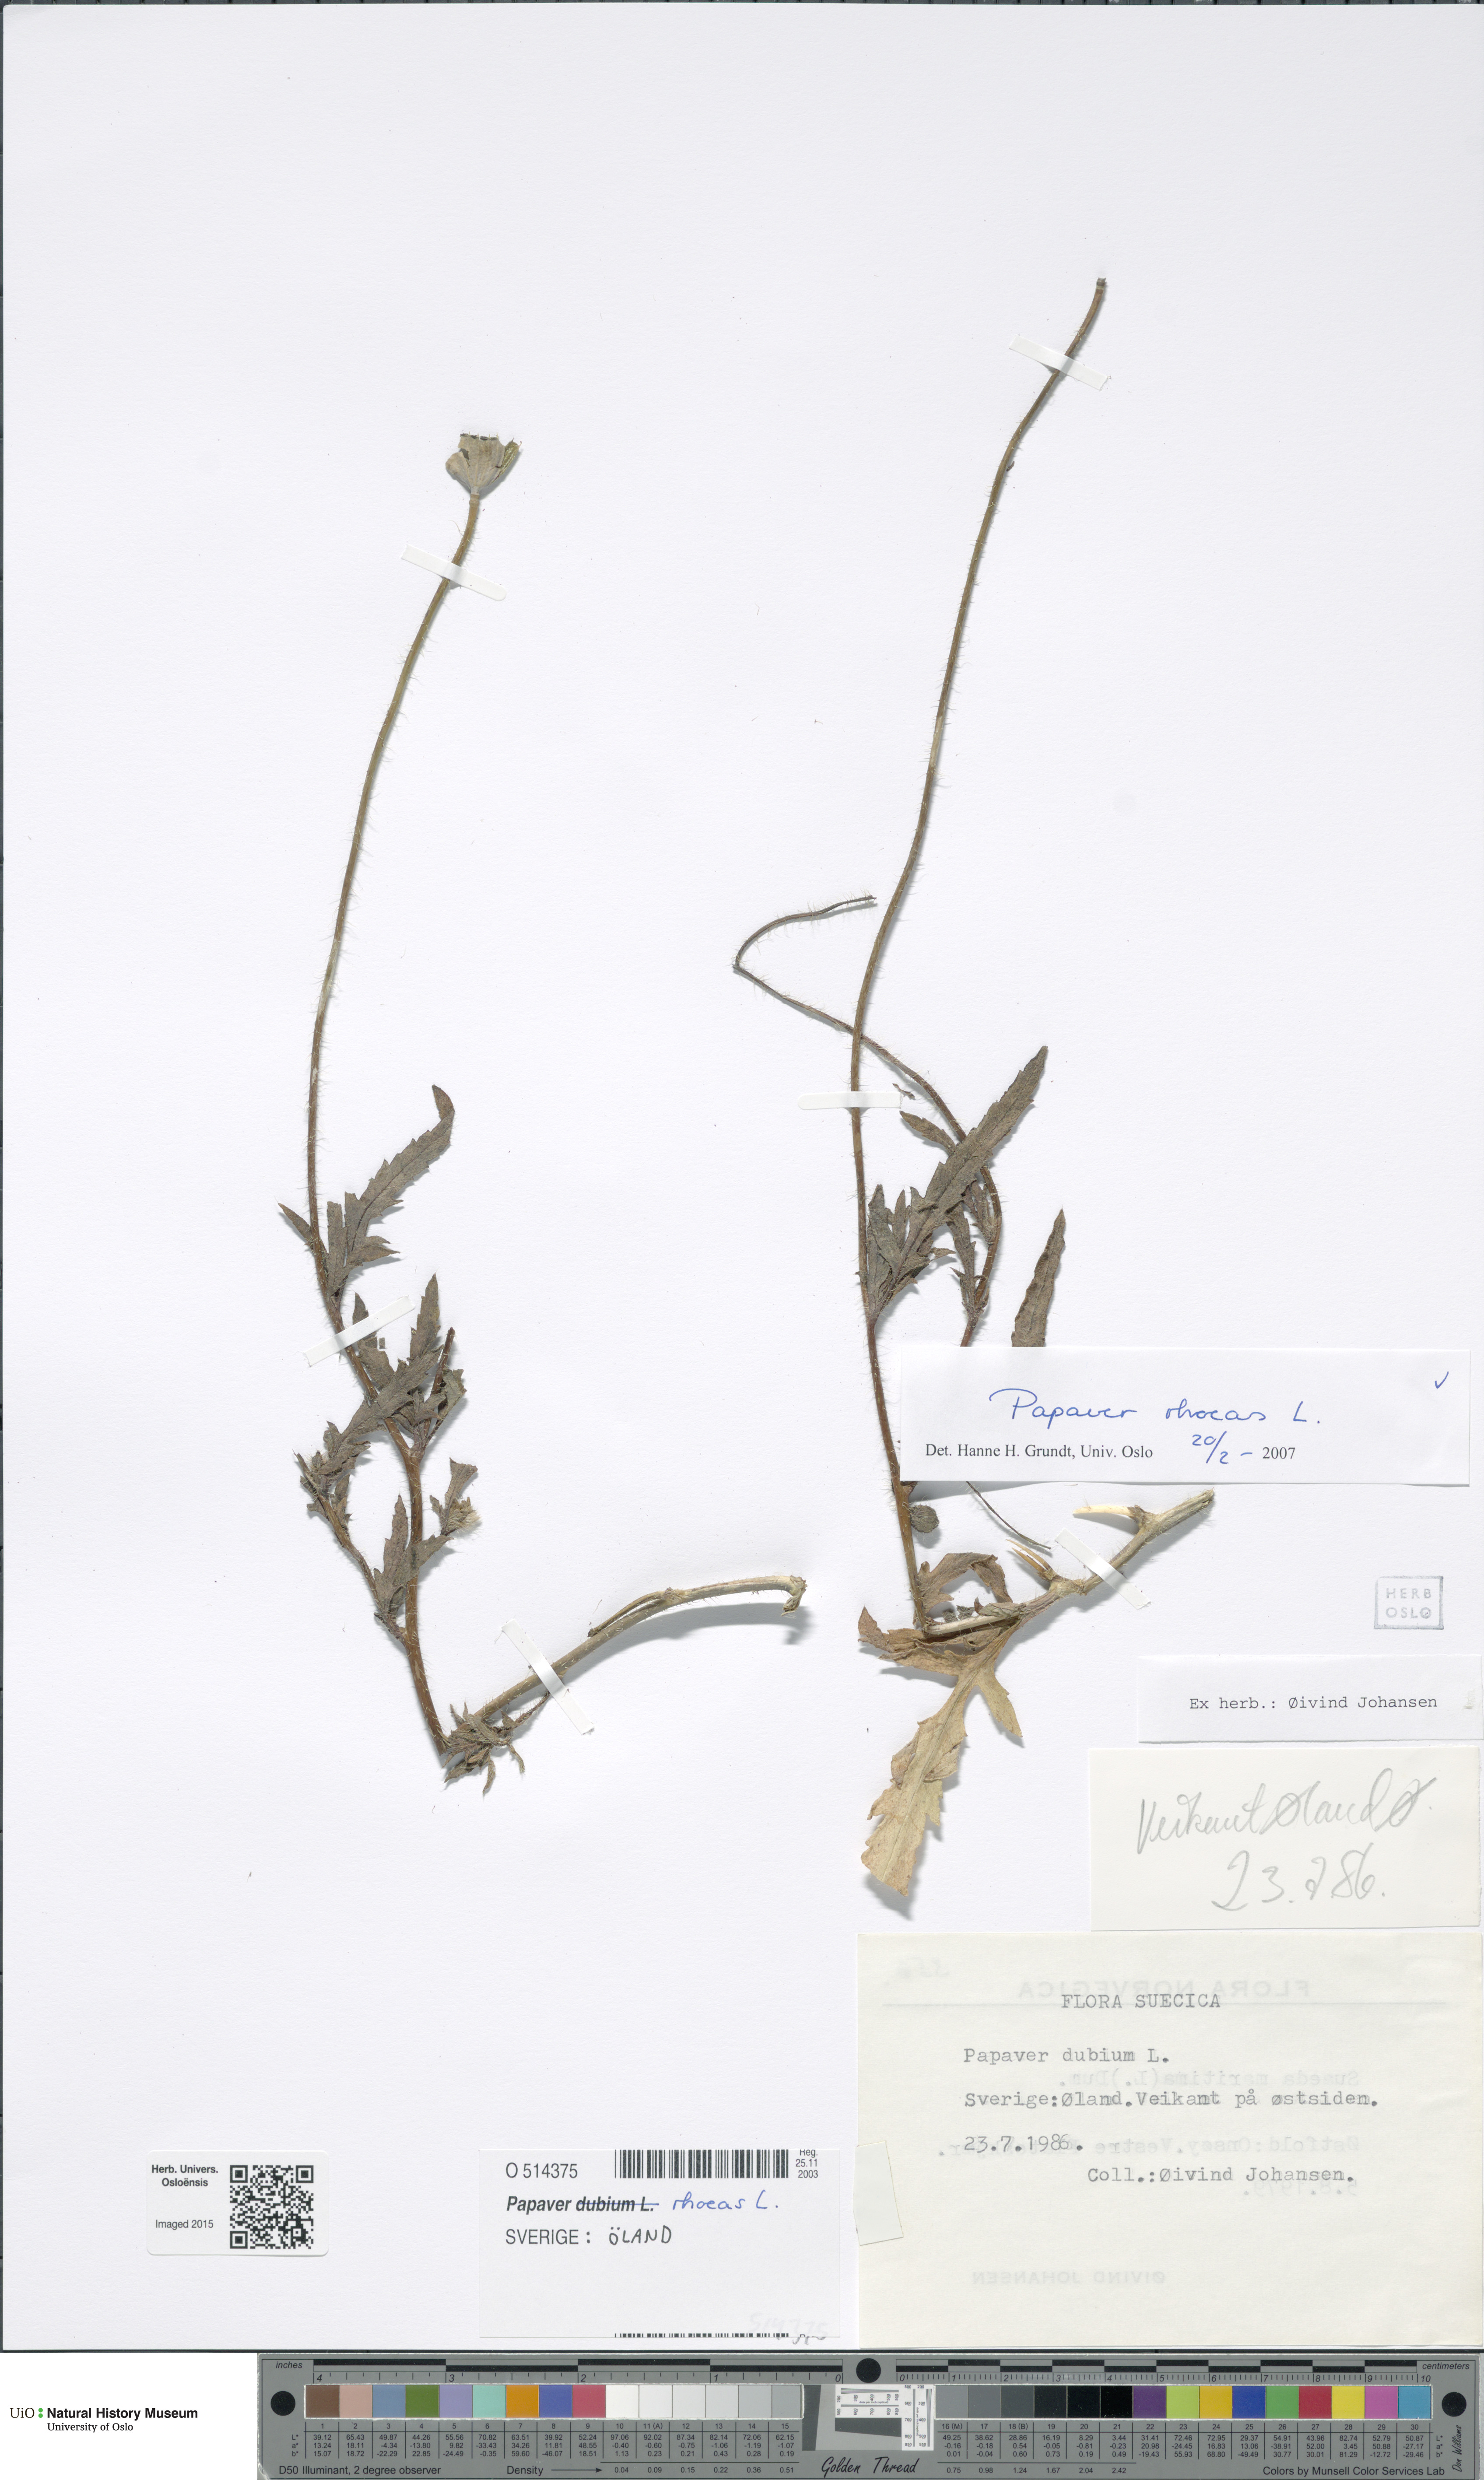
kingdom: Plantae
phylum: Tracheophyta
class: Magnoliopsida
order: Ranunculales
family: Papaveraceae
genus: Papaver
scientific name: Papaver rhoeas
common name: Corn poppy
